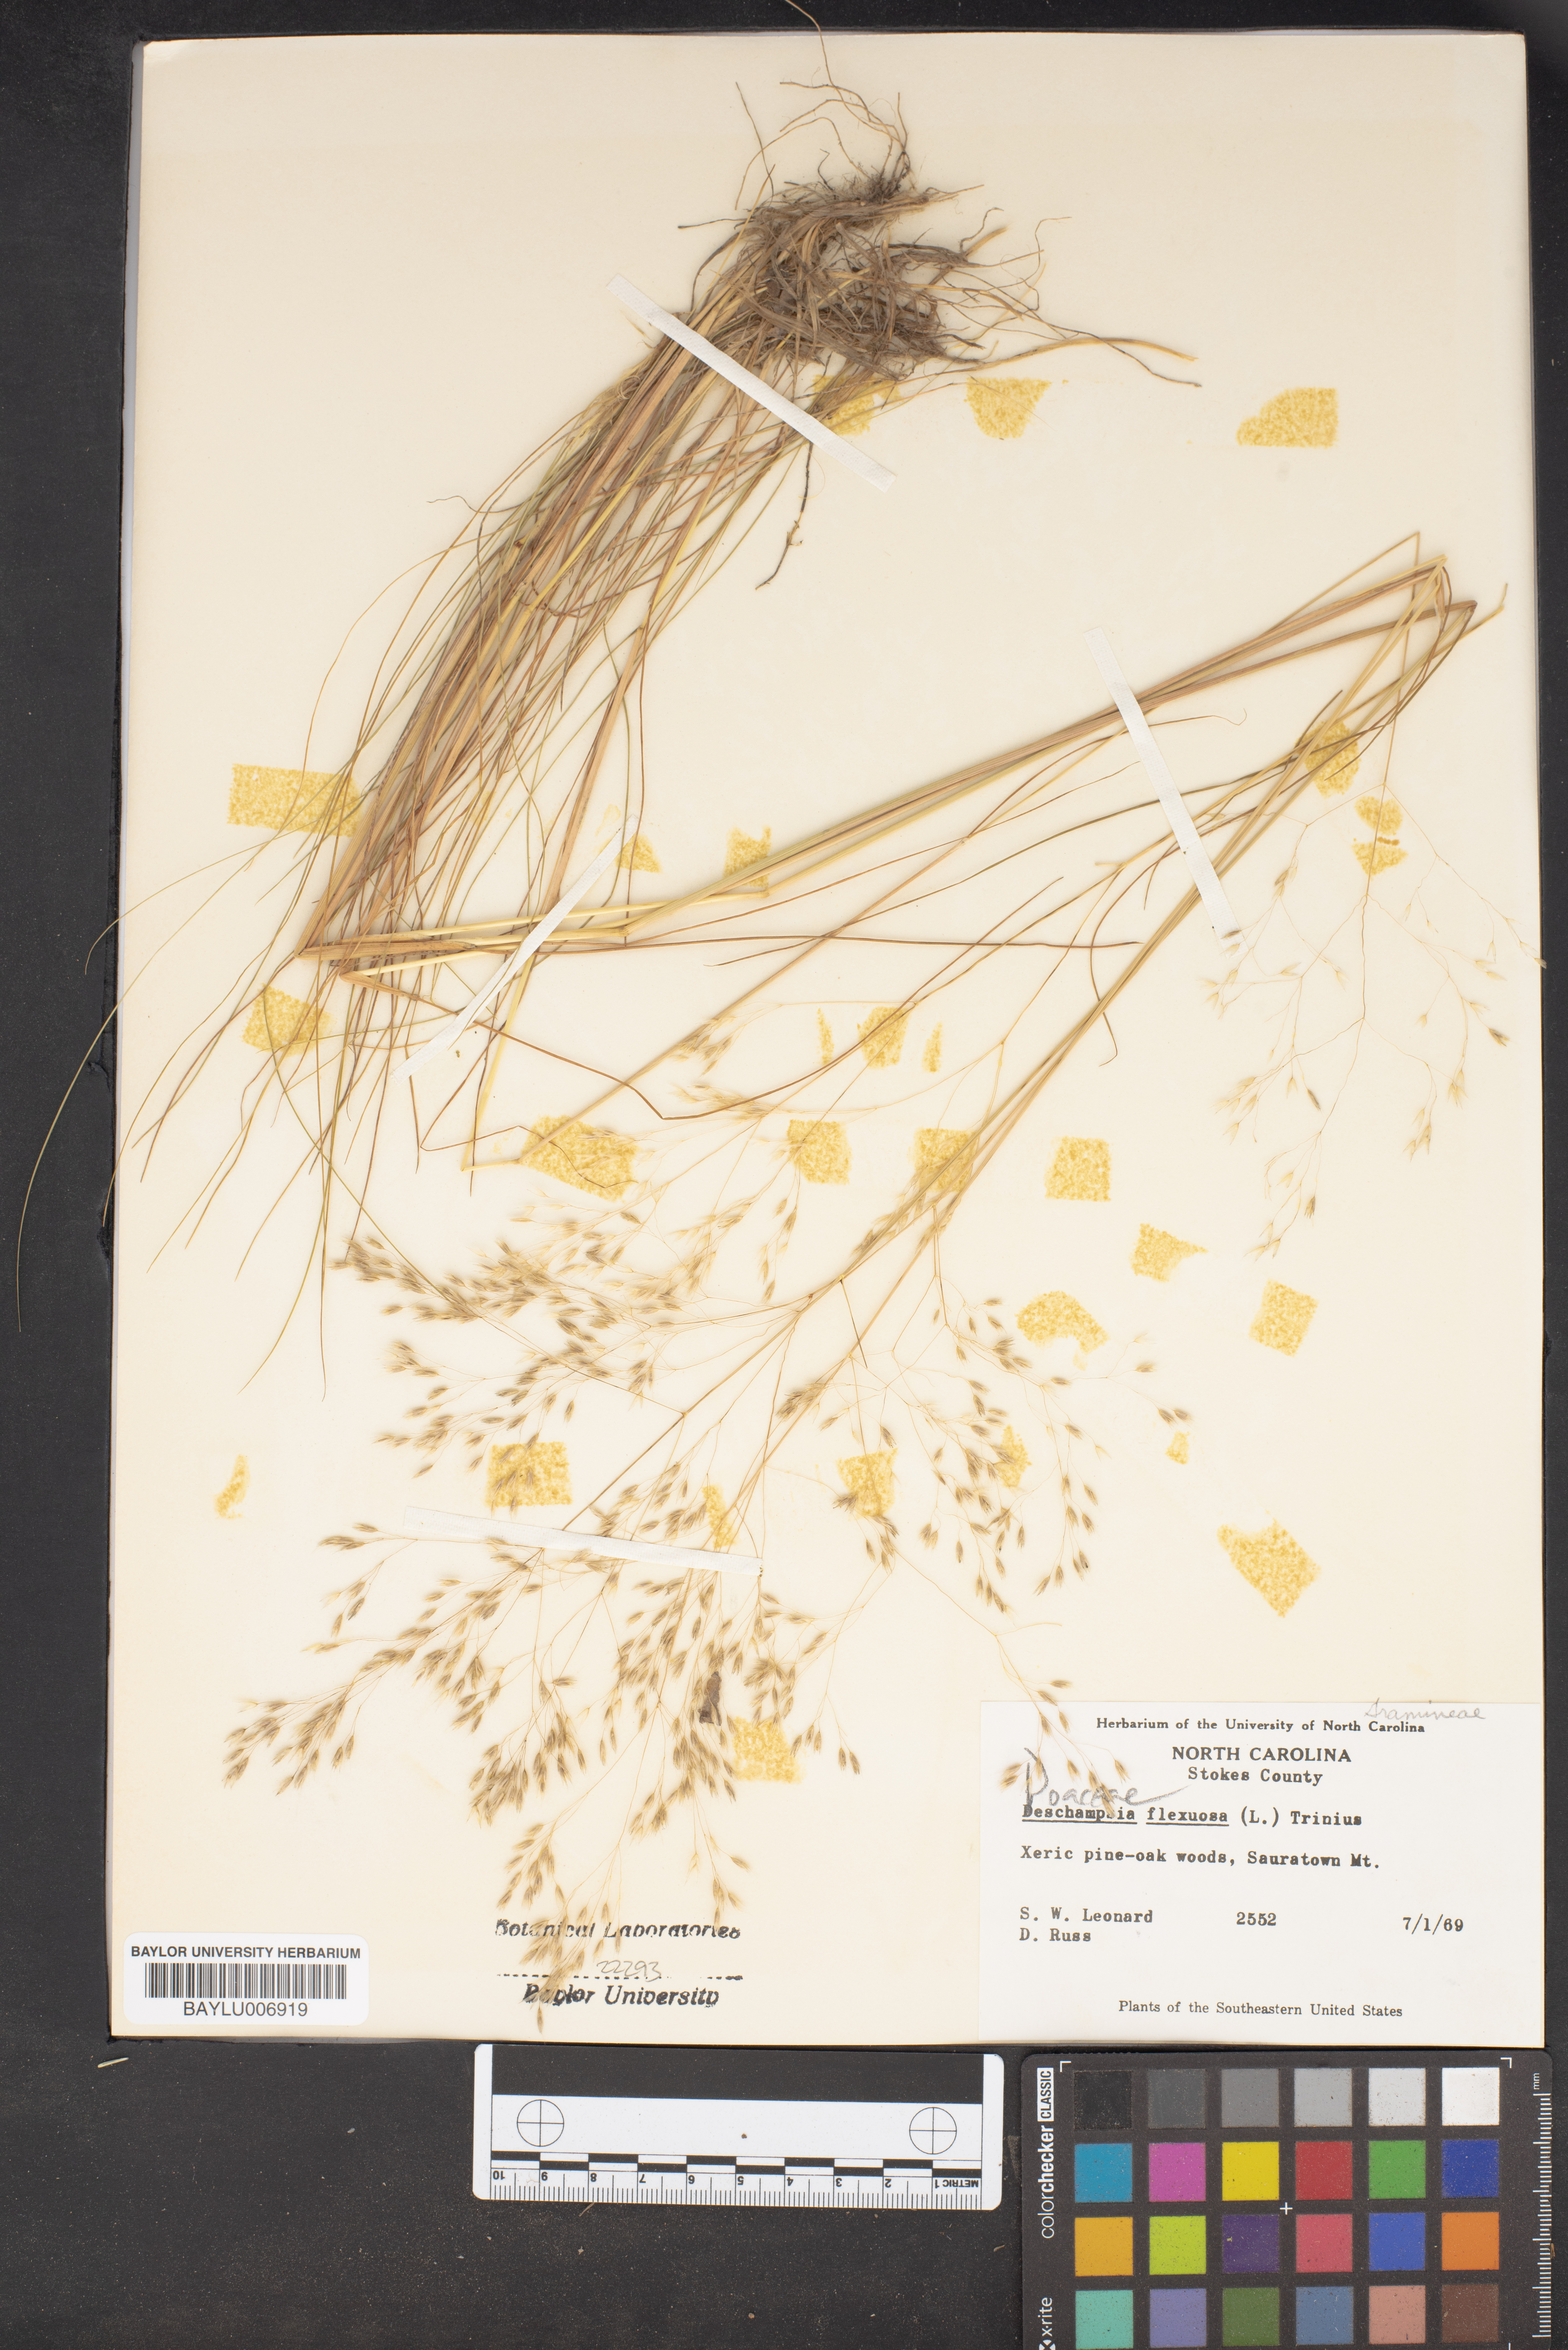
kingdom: Plantae
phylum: Tracheophyta
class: Liliopsida
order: Poales
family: Poaceae
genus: Avenella
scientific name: Avenella flexuosa
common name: Wavy hairgrass
